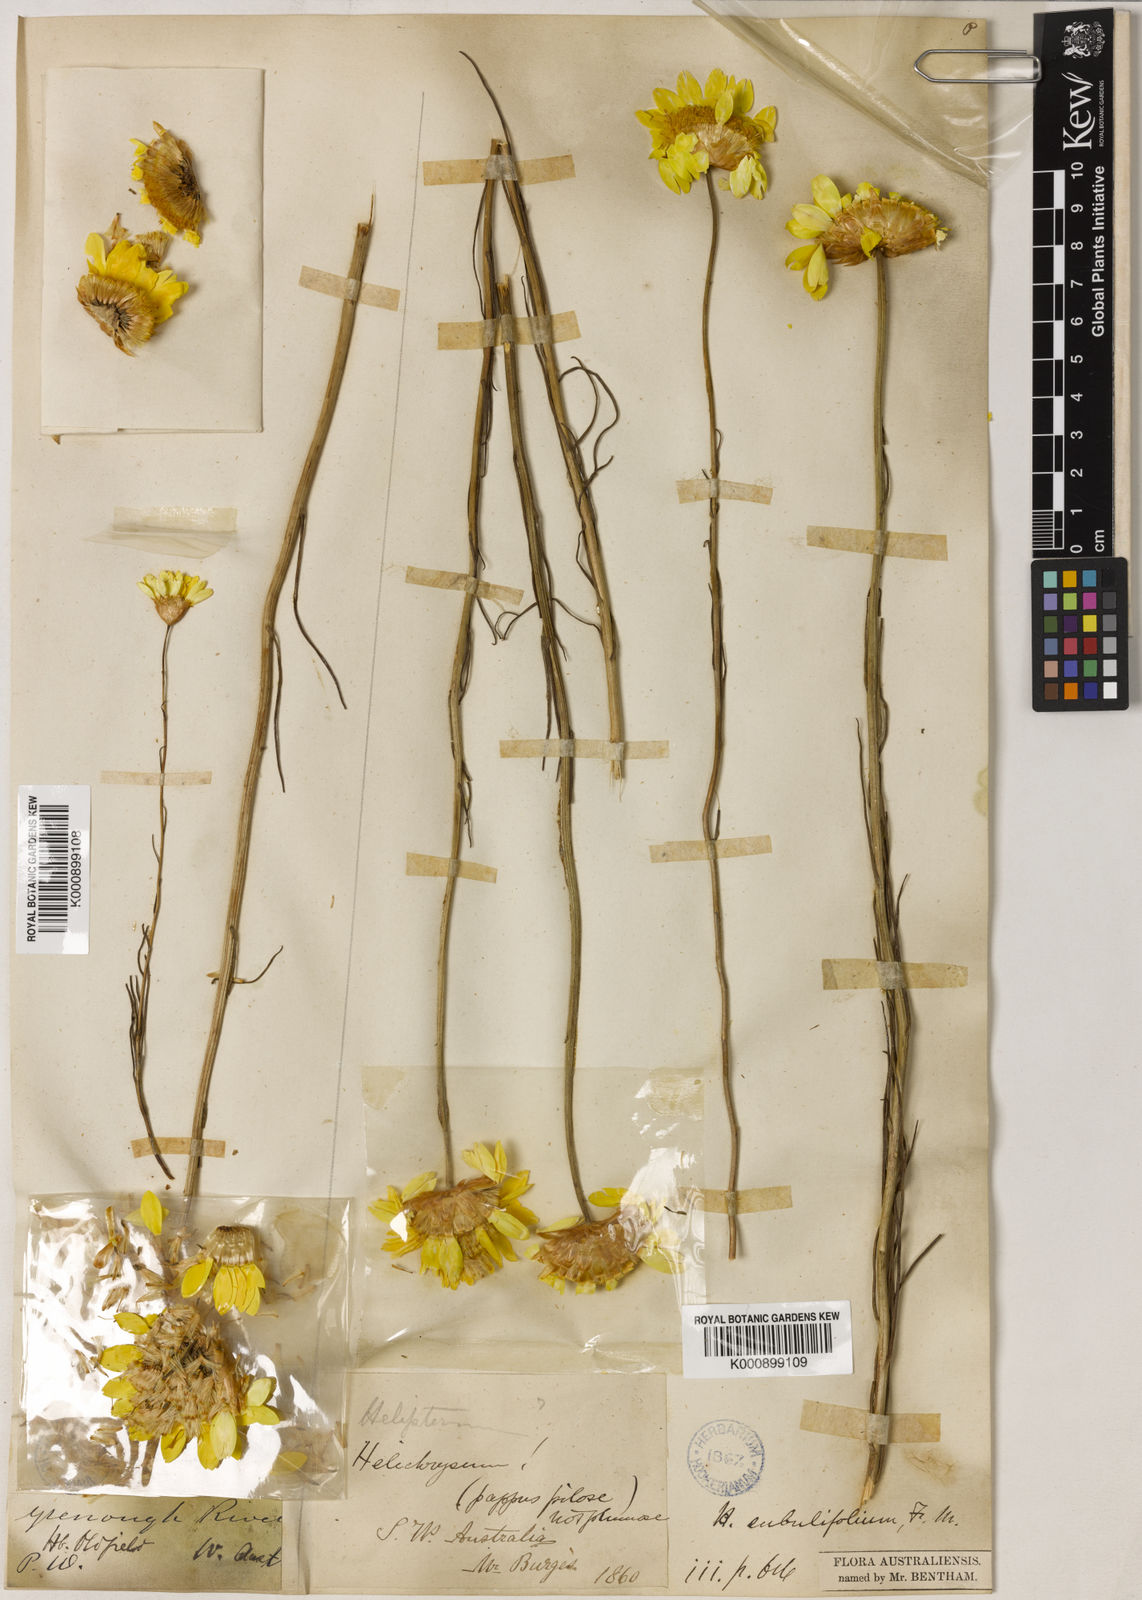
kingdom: Plantae
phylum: Tracheophyta
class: Magnoliopsida
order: Asterales
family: Asteraceae
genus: Schoenia
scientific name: Schoenia filifolia
